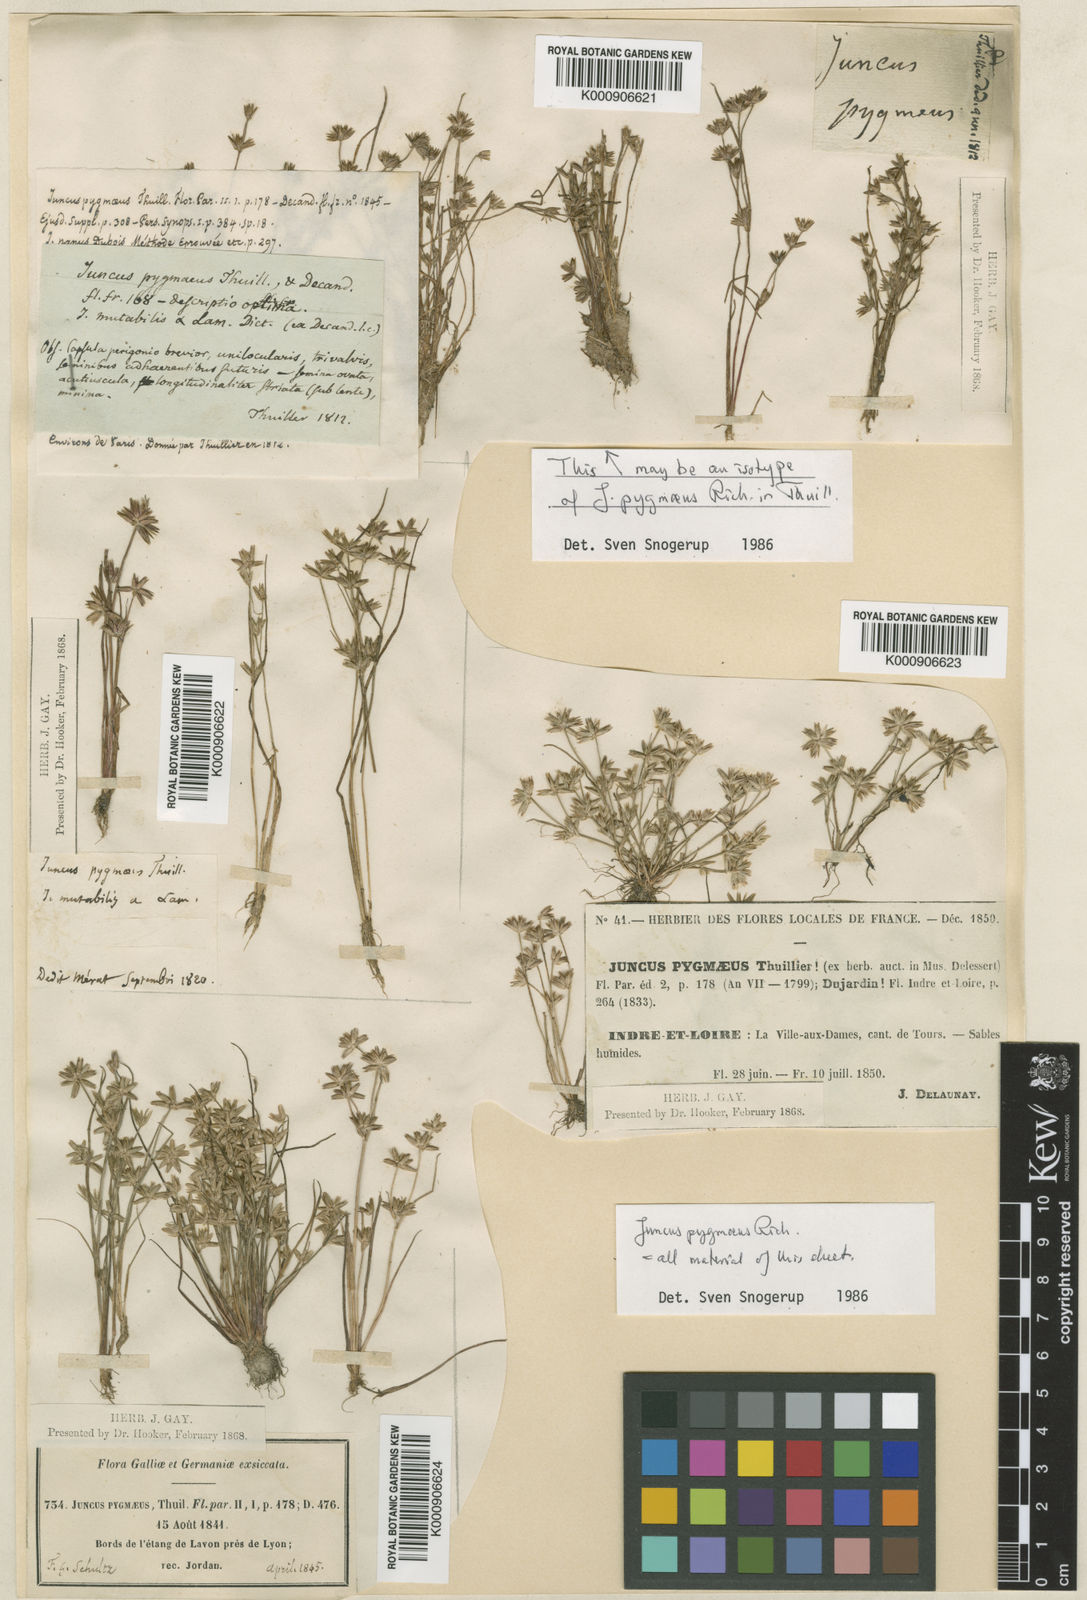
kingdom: Plantae
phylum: Tracheophyta
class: Liliopsida
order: Poales
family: Juncaceae
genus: Juncus
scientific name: Juncus
